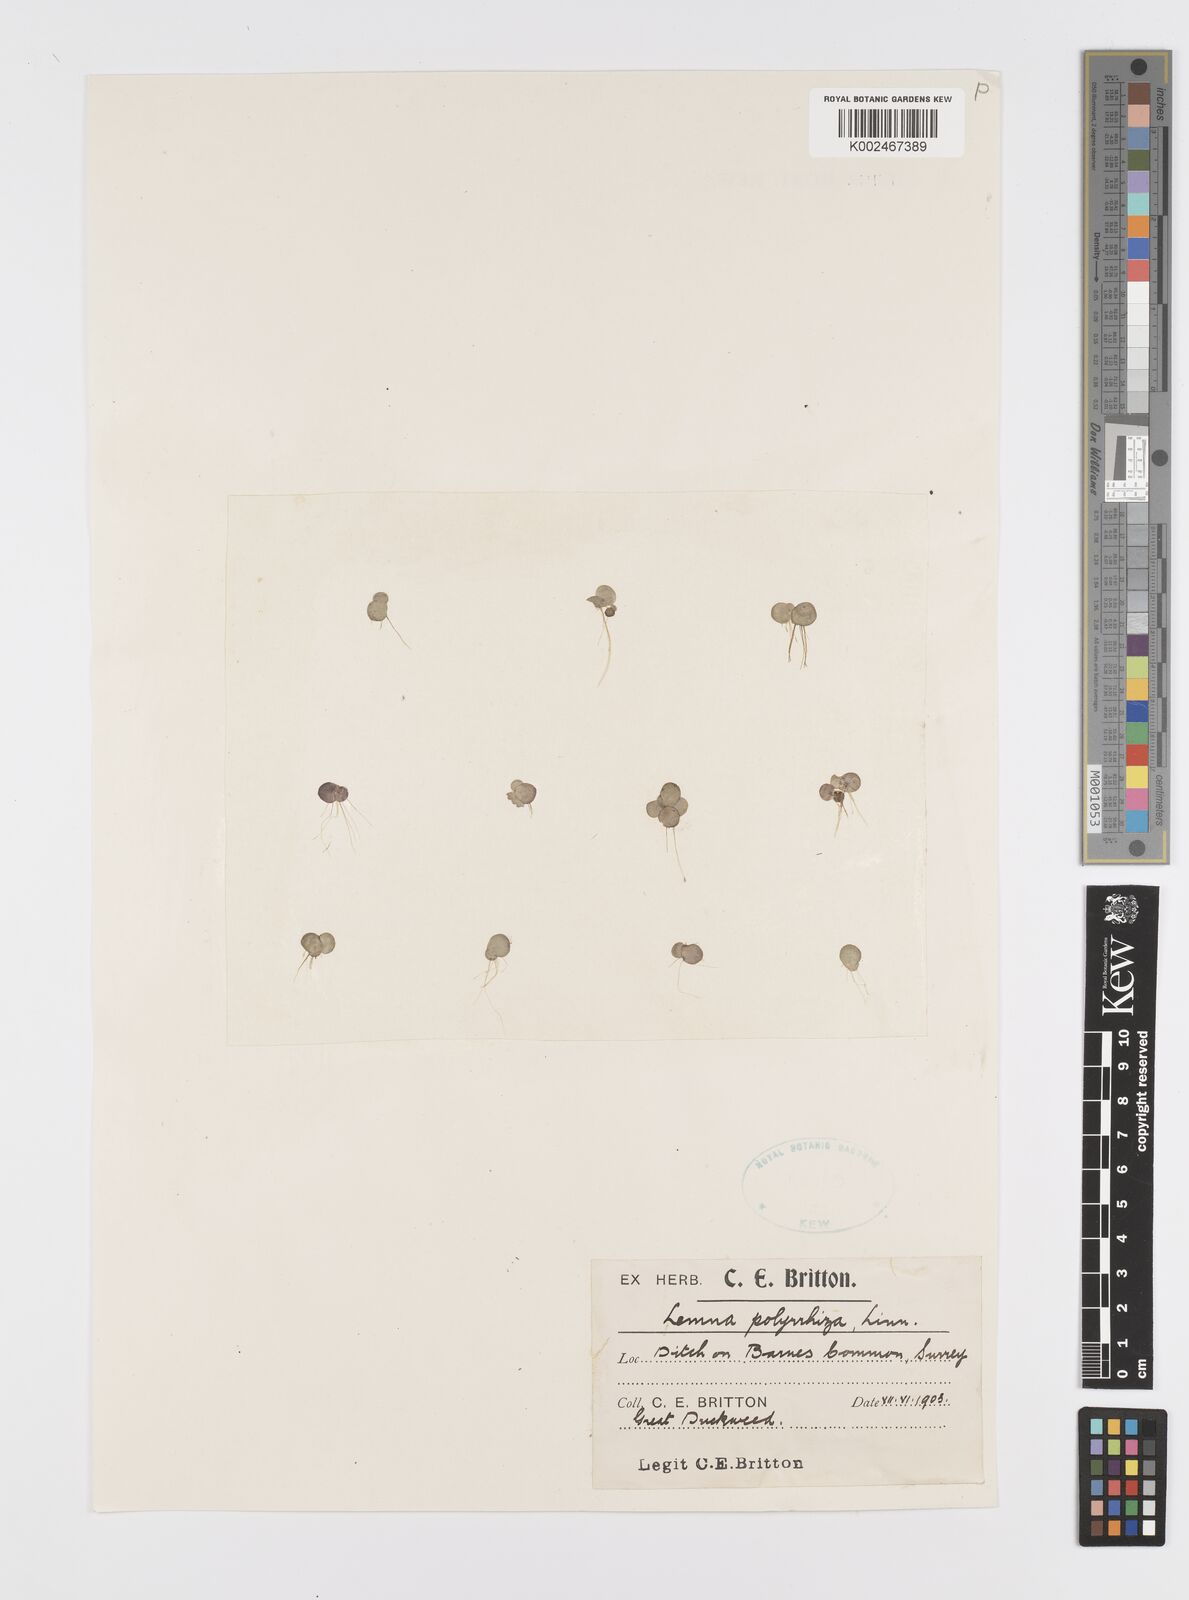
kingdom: Plantae
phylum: Tracheophyta
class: Liliopsida
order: Alismatales
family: Araceae
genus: Spirodela
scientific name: Spirodela polyrhiza
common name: Great duckweed
